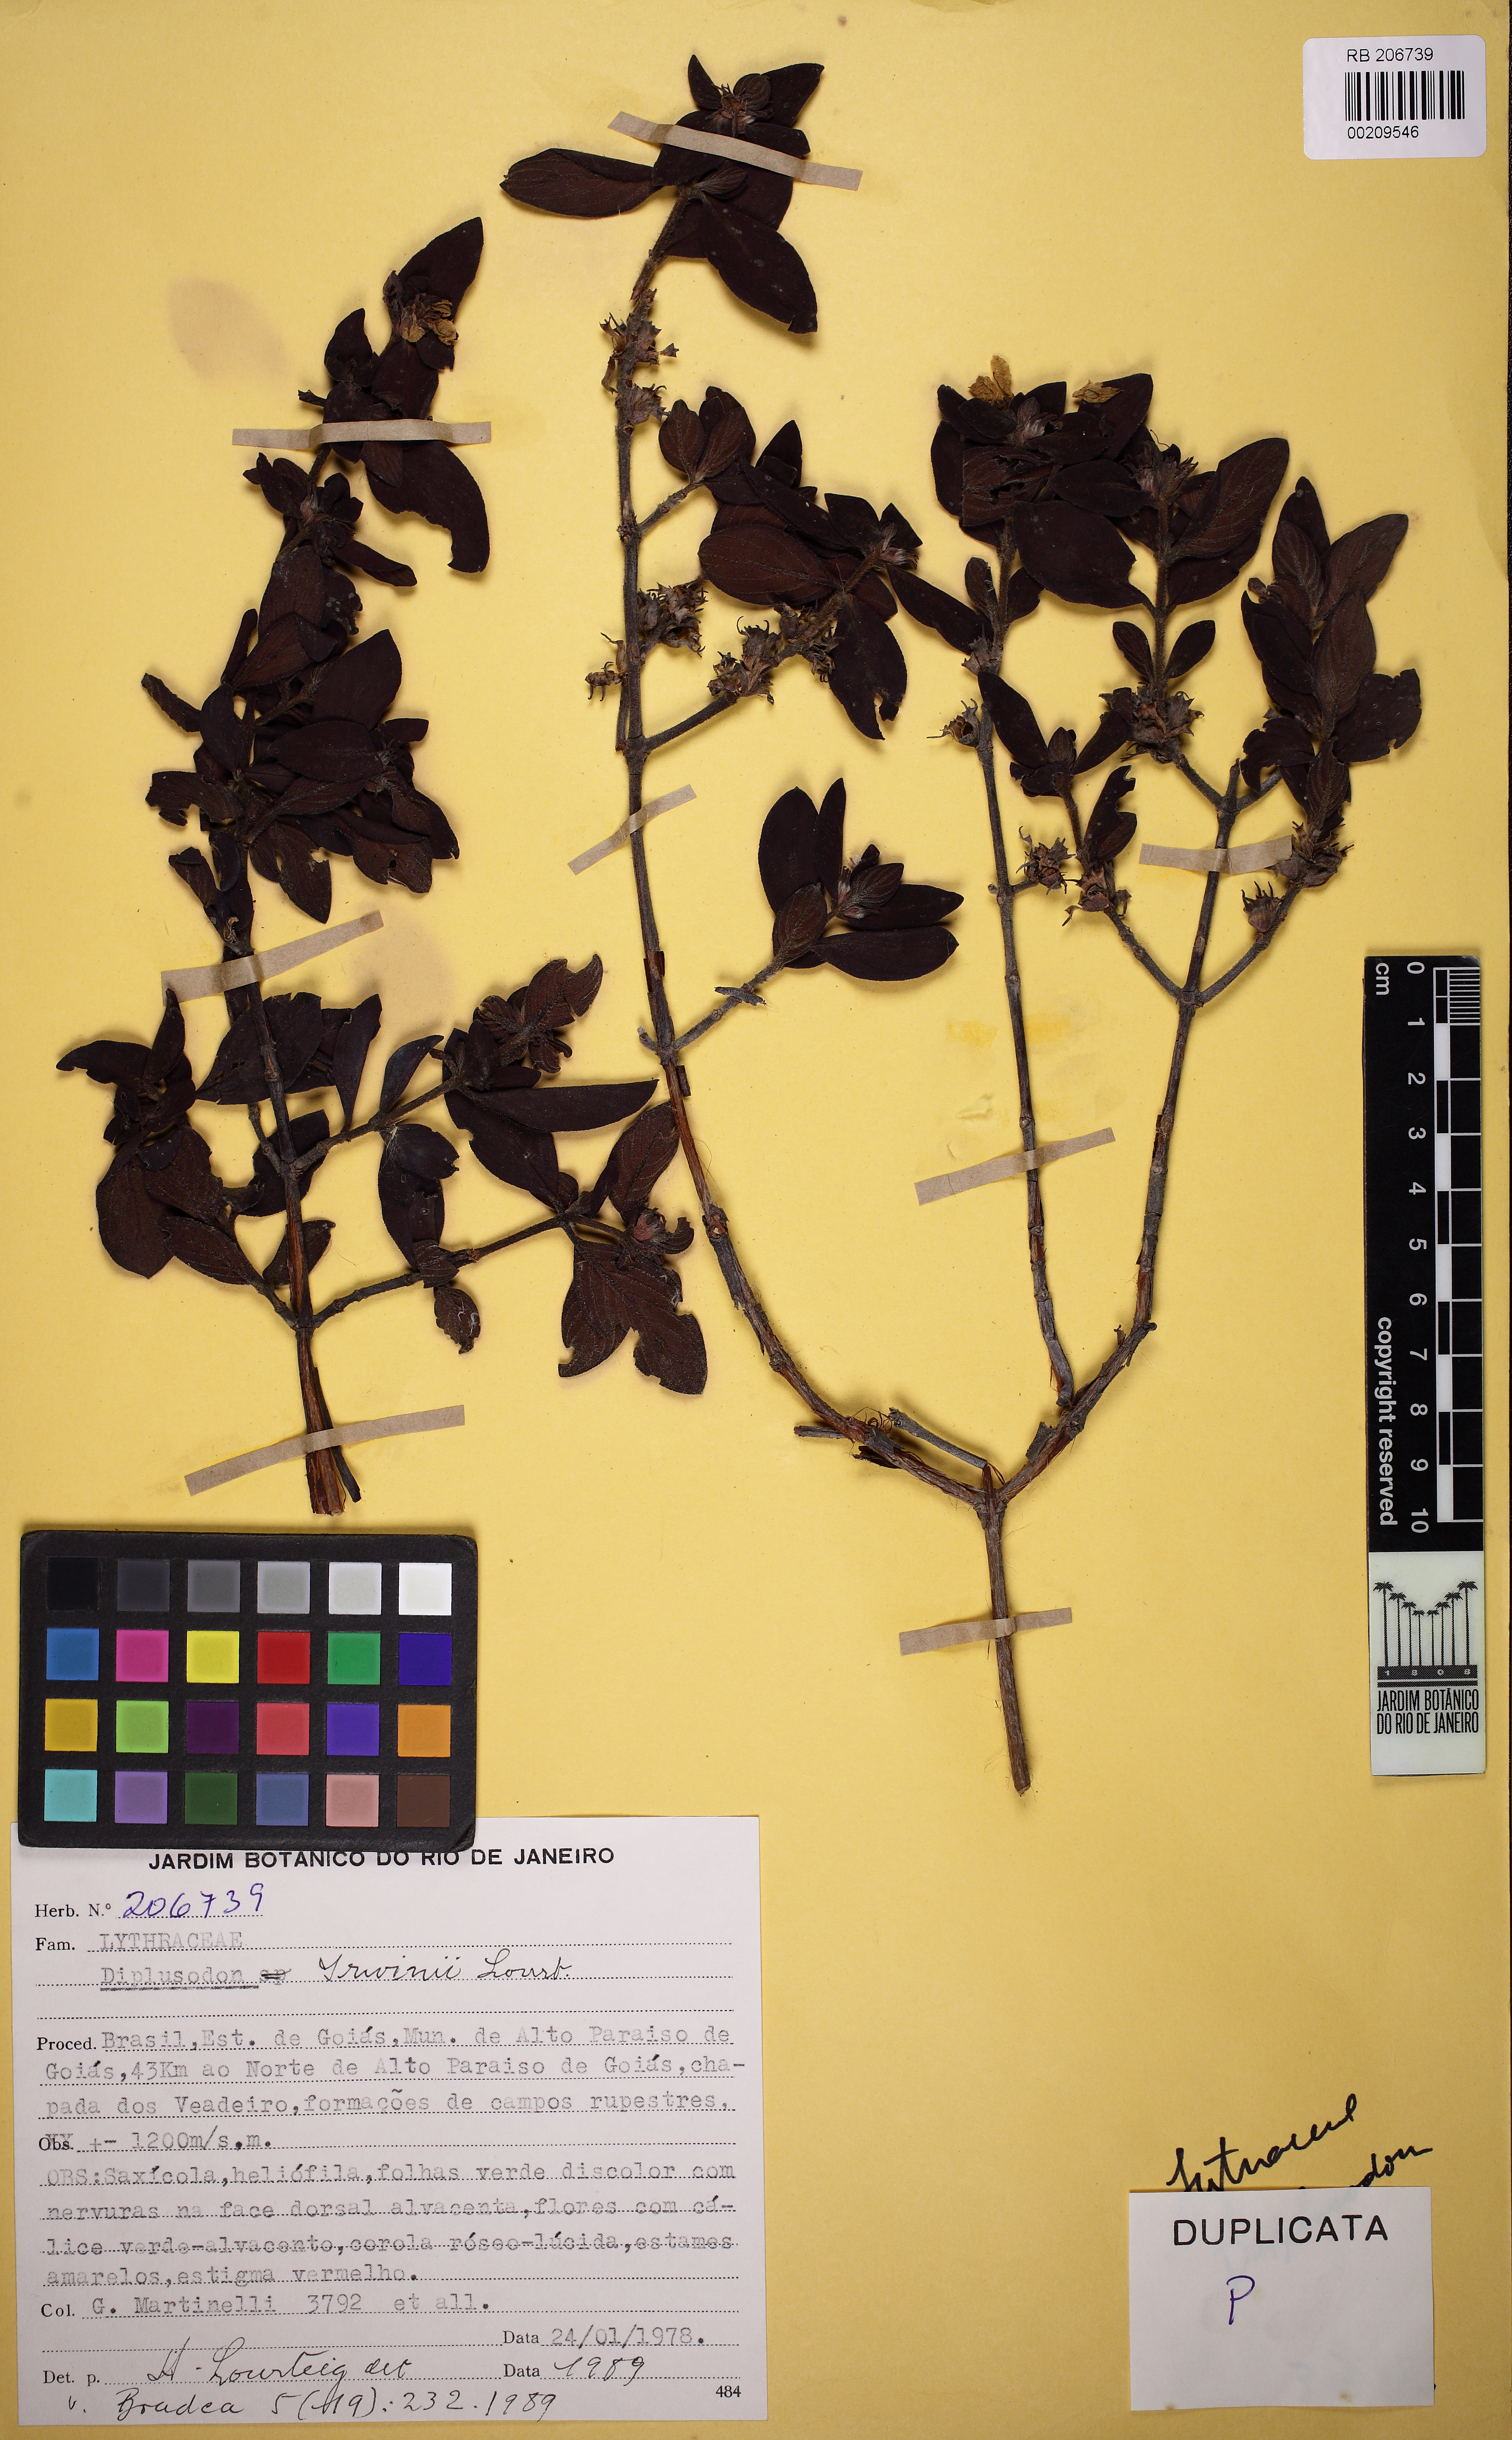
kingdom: Plantae
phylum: Tracheophyta
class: Magnoliopsida
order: Myrtales
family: Lythraceae
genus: Diplusodon
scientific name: Diplusodon leucocalycinus
